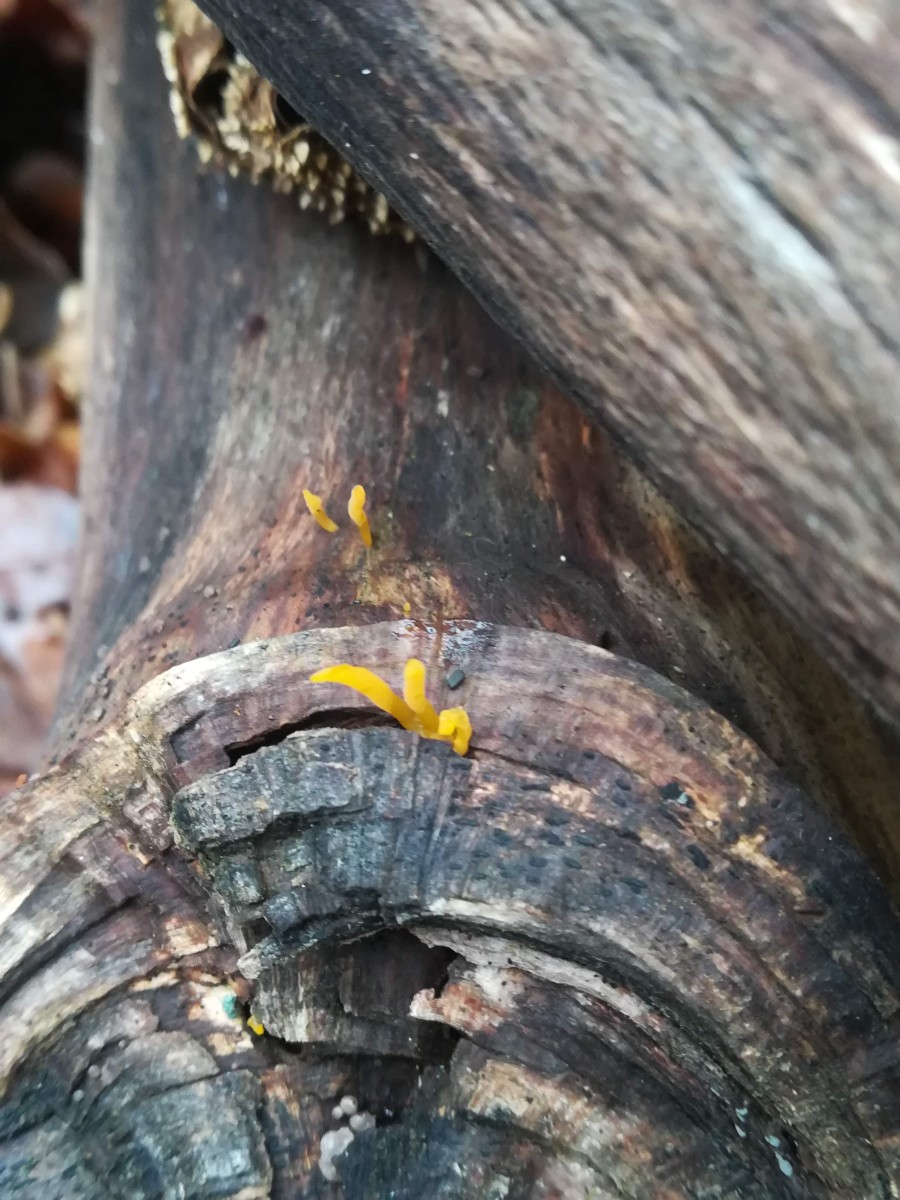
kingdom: Fungi
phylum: Basidiomycota
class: Dacrymycetes
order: Dacrymycetales
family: Dacrymycetaceae
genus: Calocera
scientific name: Calocera cornea
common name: liden guldgaffel
